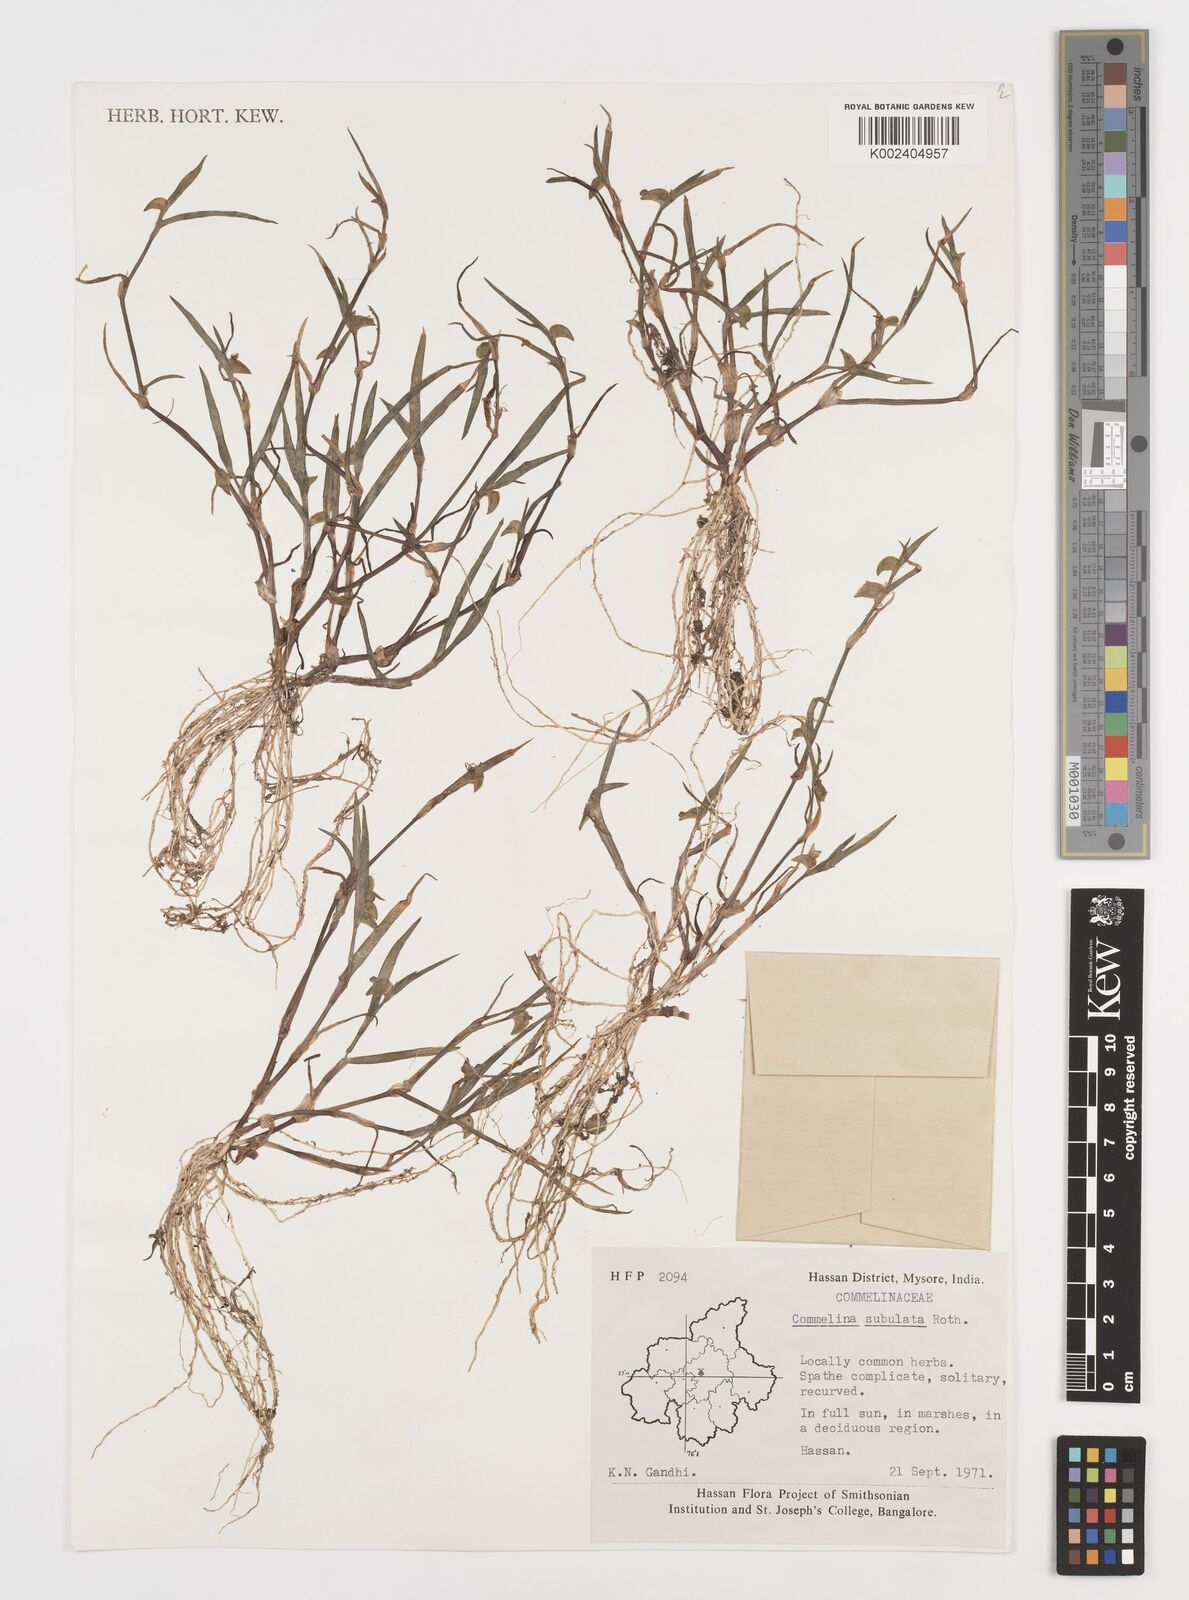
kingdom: Plantae
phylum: Tracheophyta
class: Liliopsida
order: Commelinales
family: Commelinaceae
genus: Commelina
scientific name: Commelina subulata
